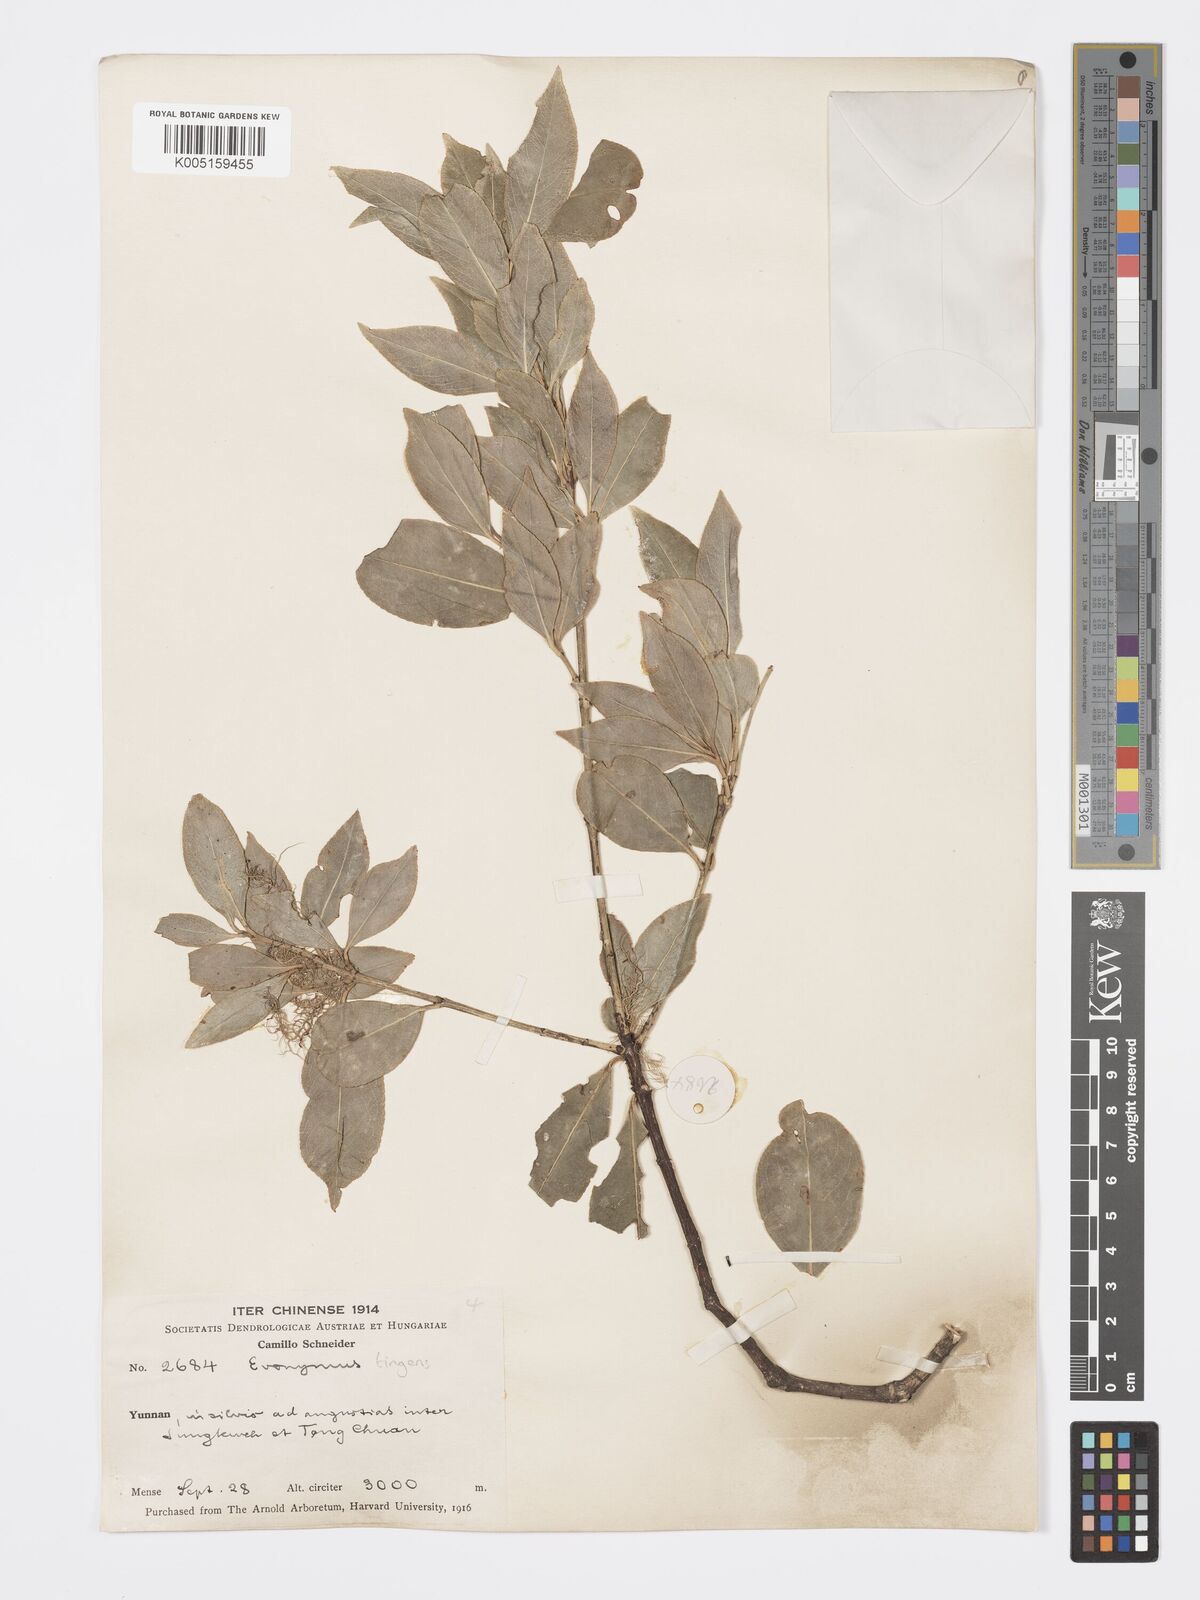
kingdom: Plantae
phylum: Tracheophyta
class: Magnoliopsida
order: Celastrales
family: Celastraceae
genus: Euonymus
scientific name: Euonymus tingens
